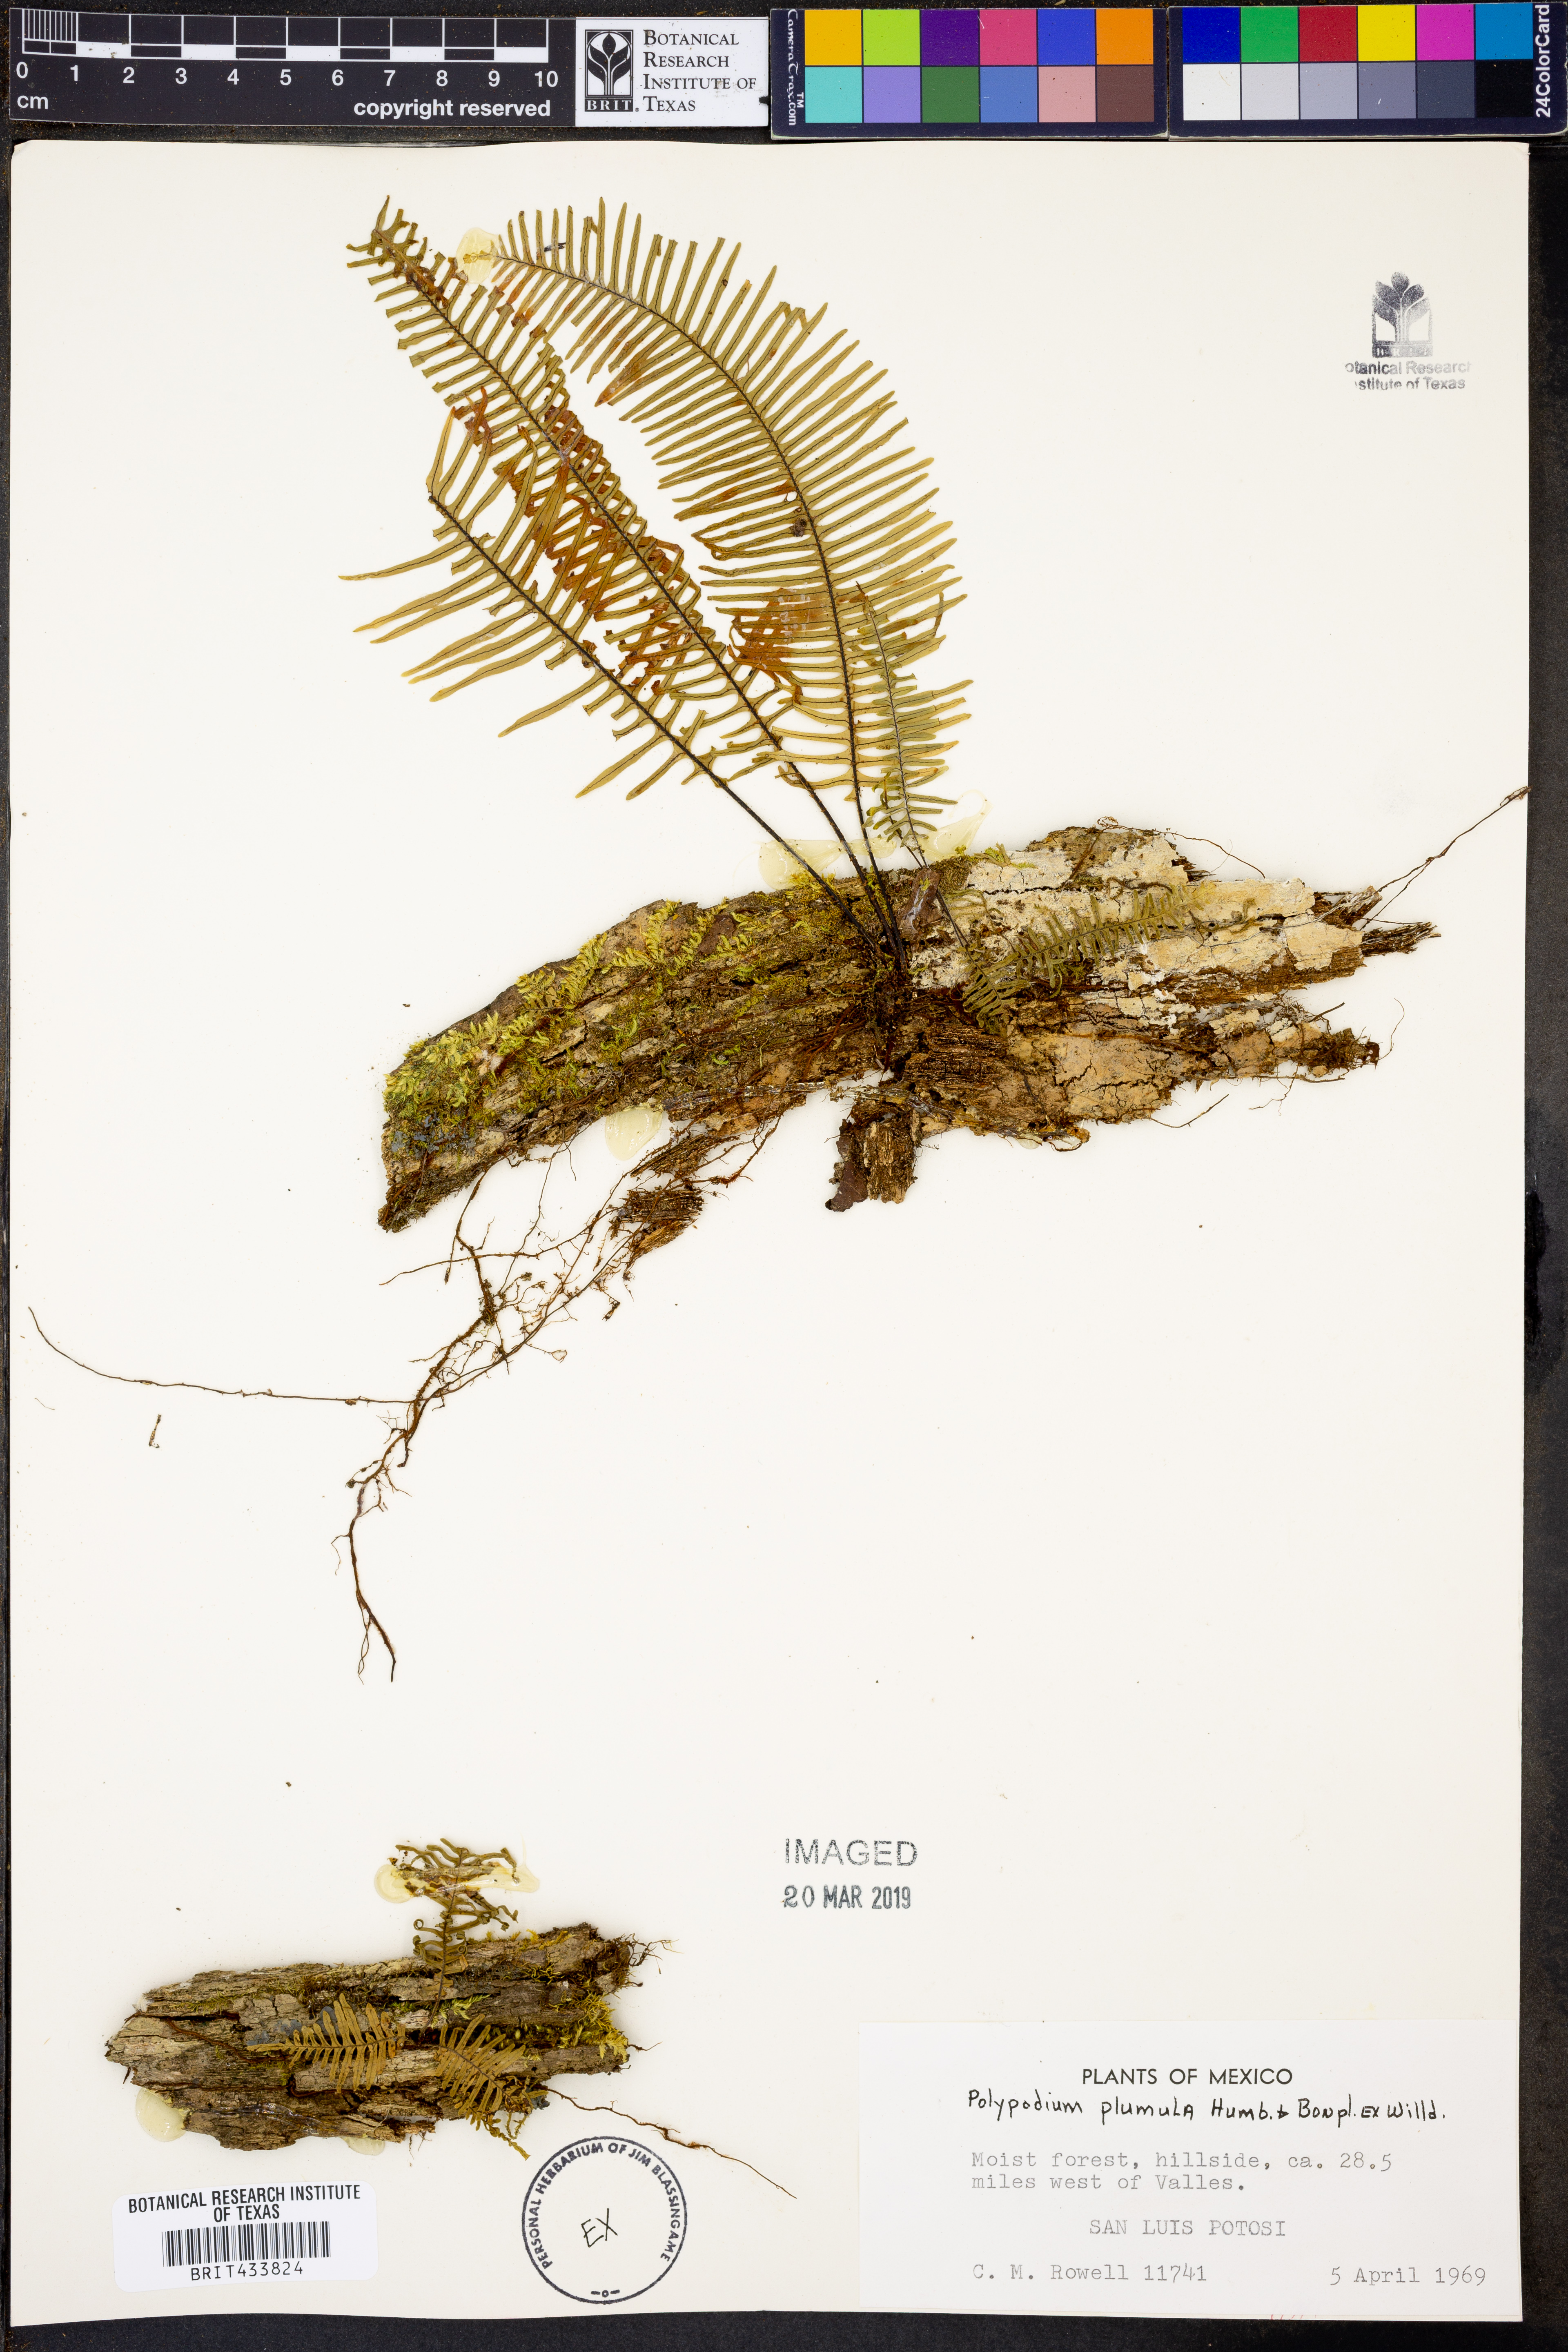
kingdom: Plantae
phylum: Tracheophyta
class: Polypodiopsida
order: Polypodiales
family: Polypodiaceae
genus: Pecluma
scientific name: Pecluma plumula
